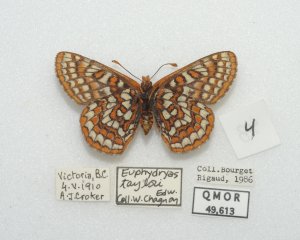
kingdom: Animalia
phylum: Arthropoda
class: Insecta
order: Lepidoptera
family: Nymphalidae
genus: Occidryas
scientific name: Occidryas editha
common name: Edith's Checkerspot
